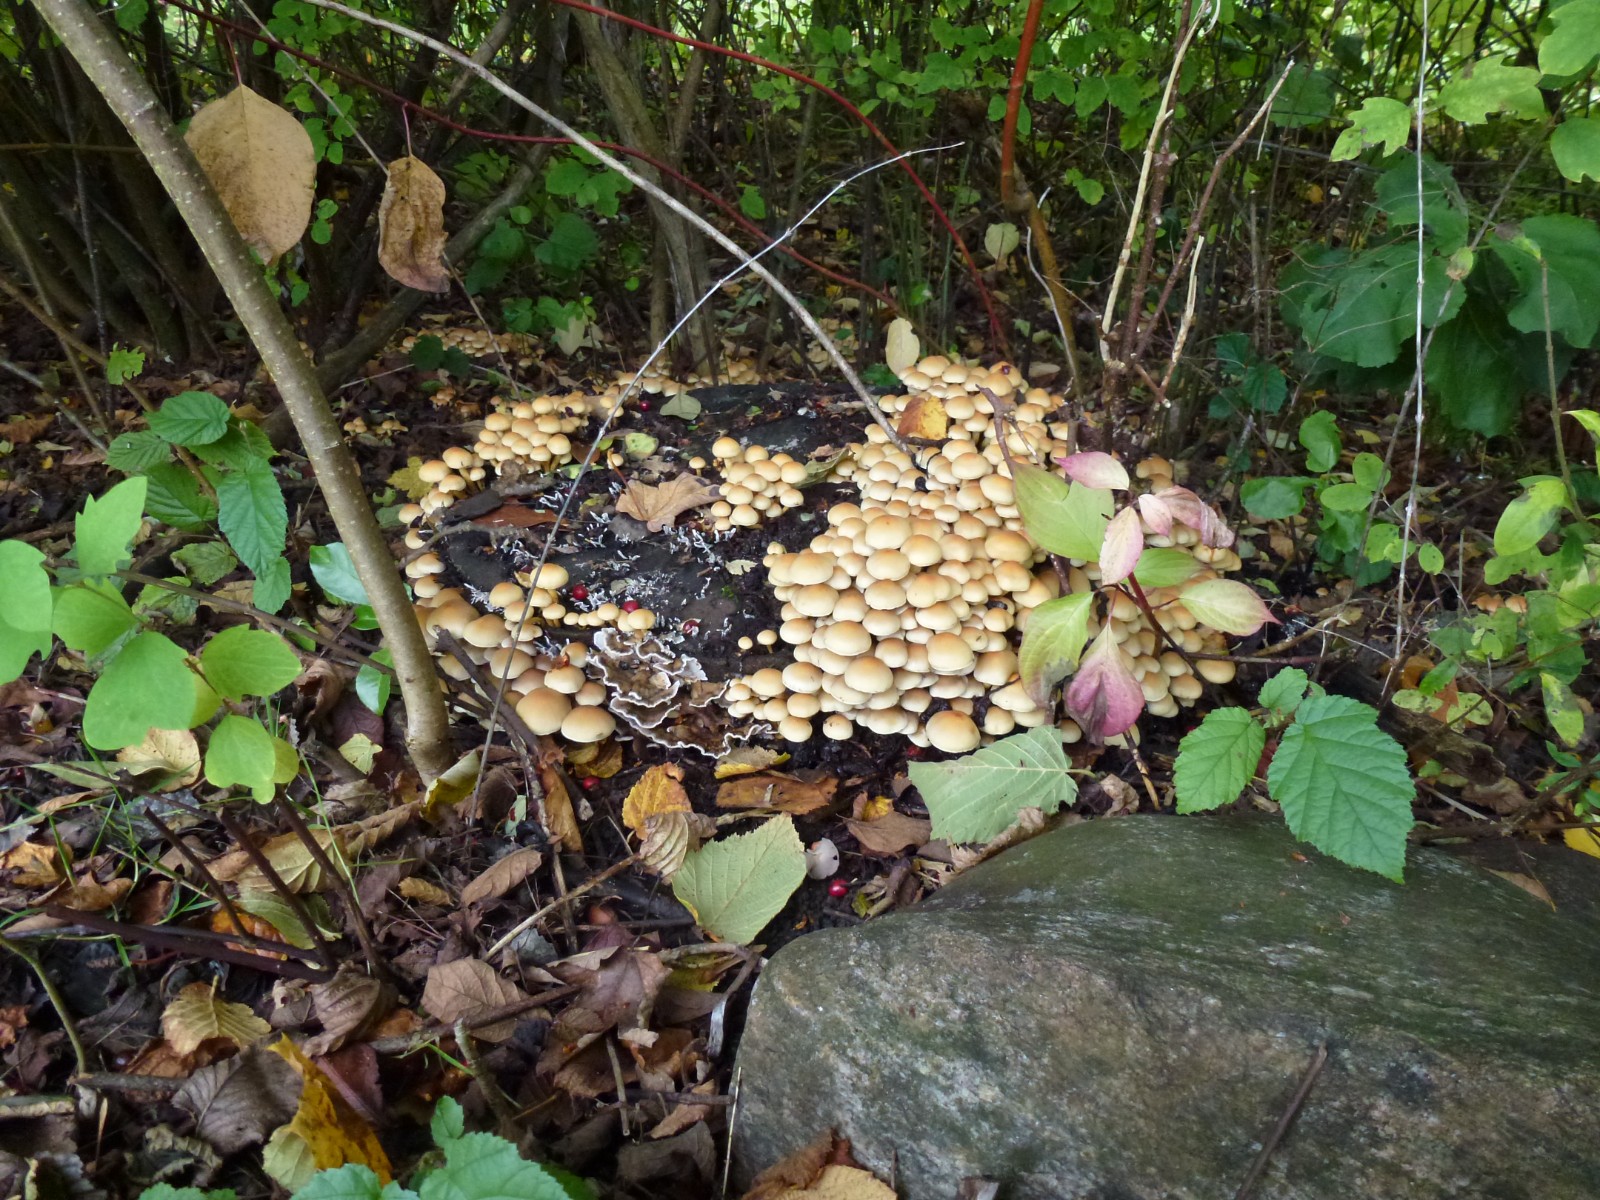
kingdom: Fungi
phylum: Basidiomycota
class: Agaricomycetes
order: Agaricales
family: Strophariaceae
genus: Hypholoma
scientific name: Hypholoma fasciculare
